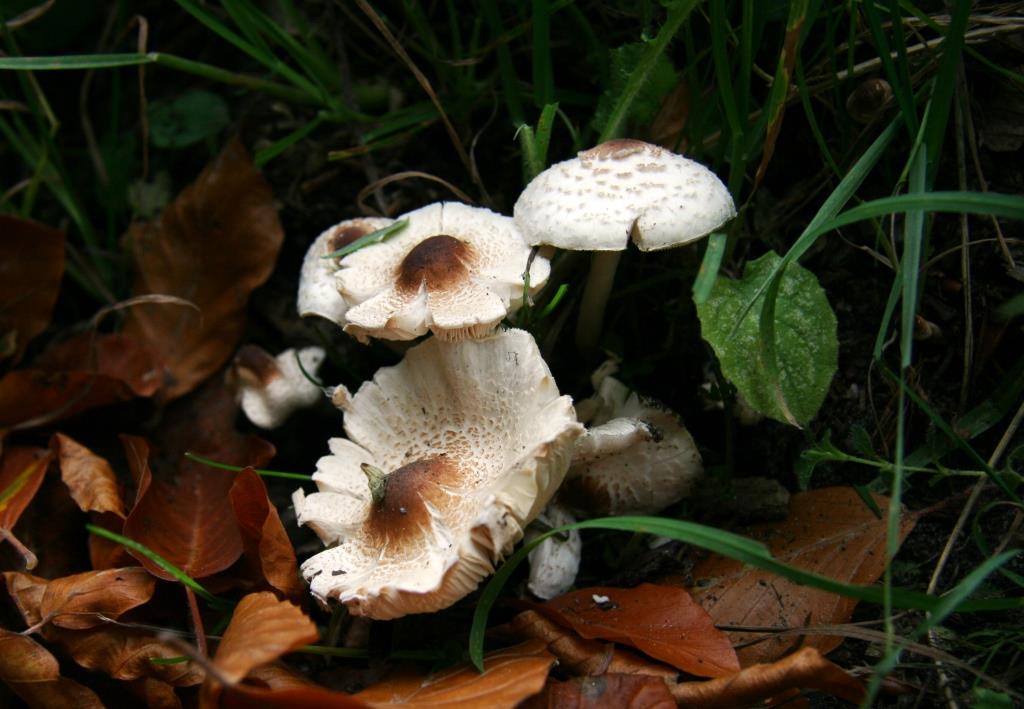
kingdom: Fungi
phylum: Basidiomycota
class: Agaricomycetes
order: Agaricales
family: Agaricaceae
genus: Lepiota
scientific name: Lepiota cristata
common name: stinkende parasolhat
